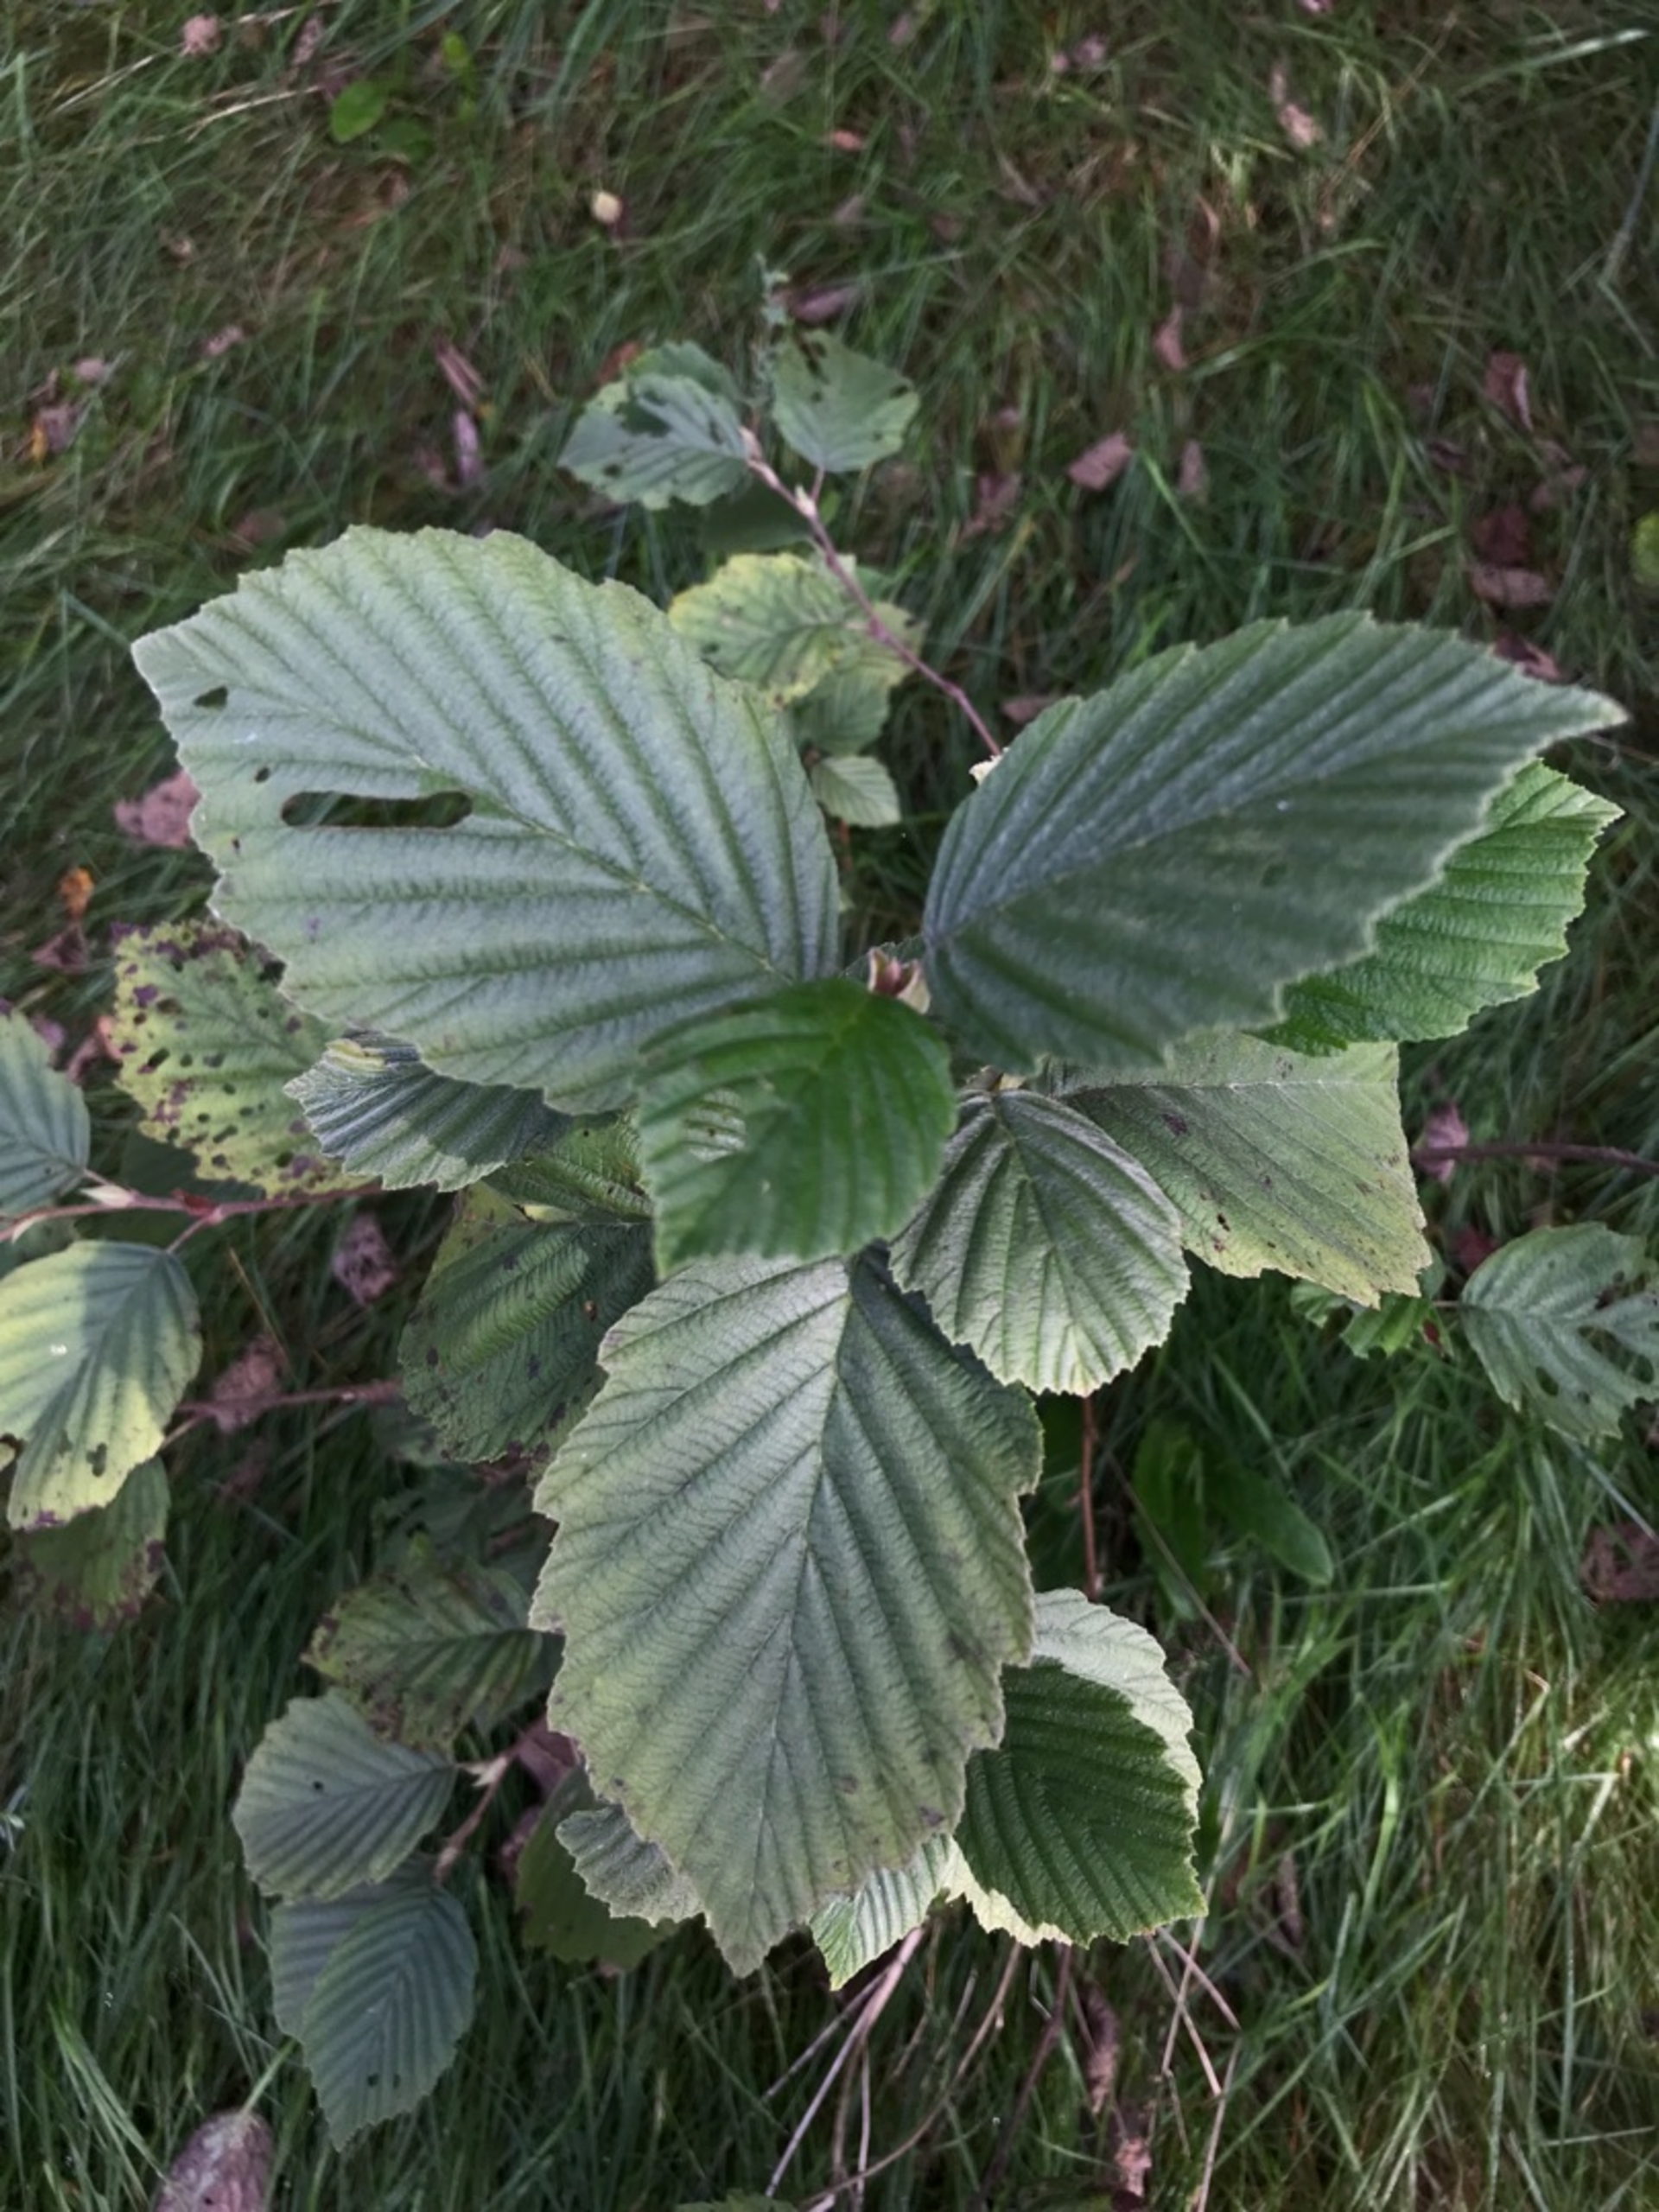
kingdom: Plantae
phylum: Tracheophyta
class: Magnoliopsida
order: Fagales
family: Betulaceae
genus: Alnus
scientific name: Alnus incana
